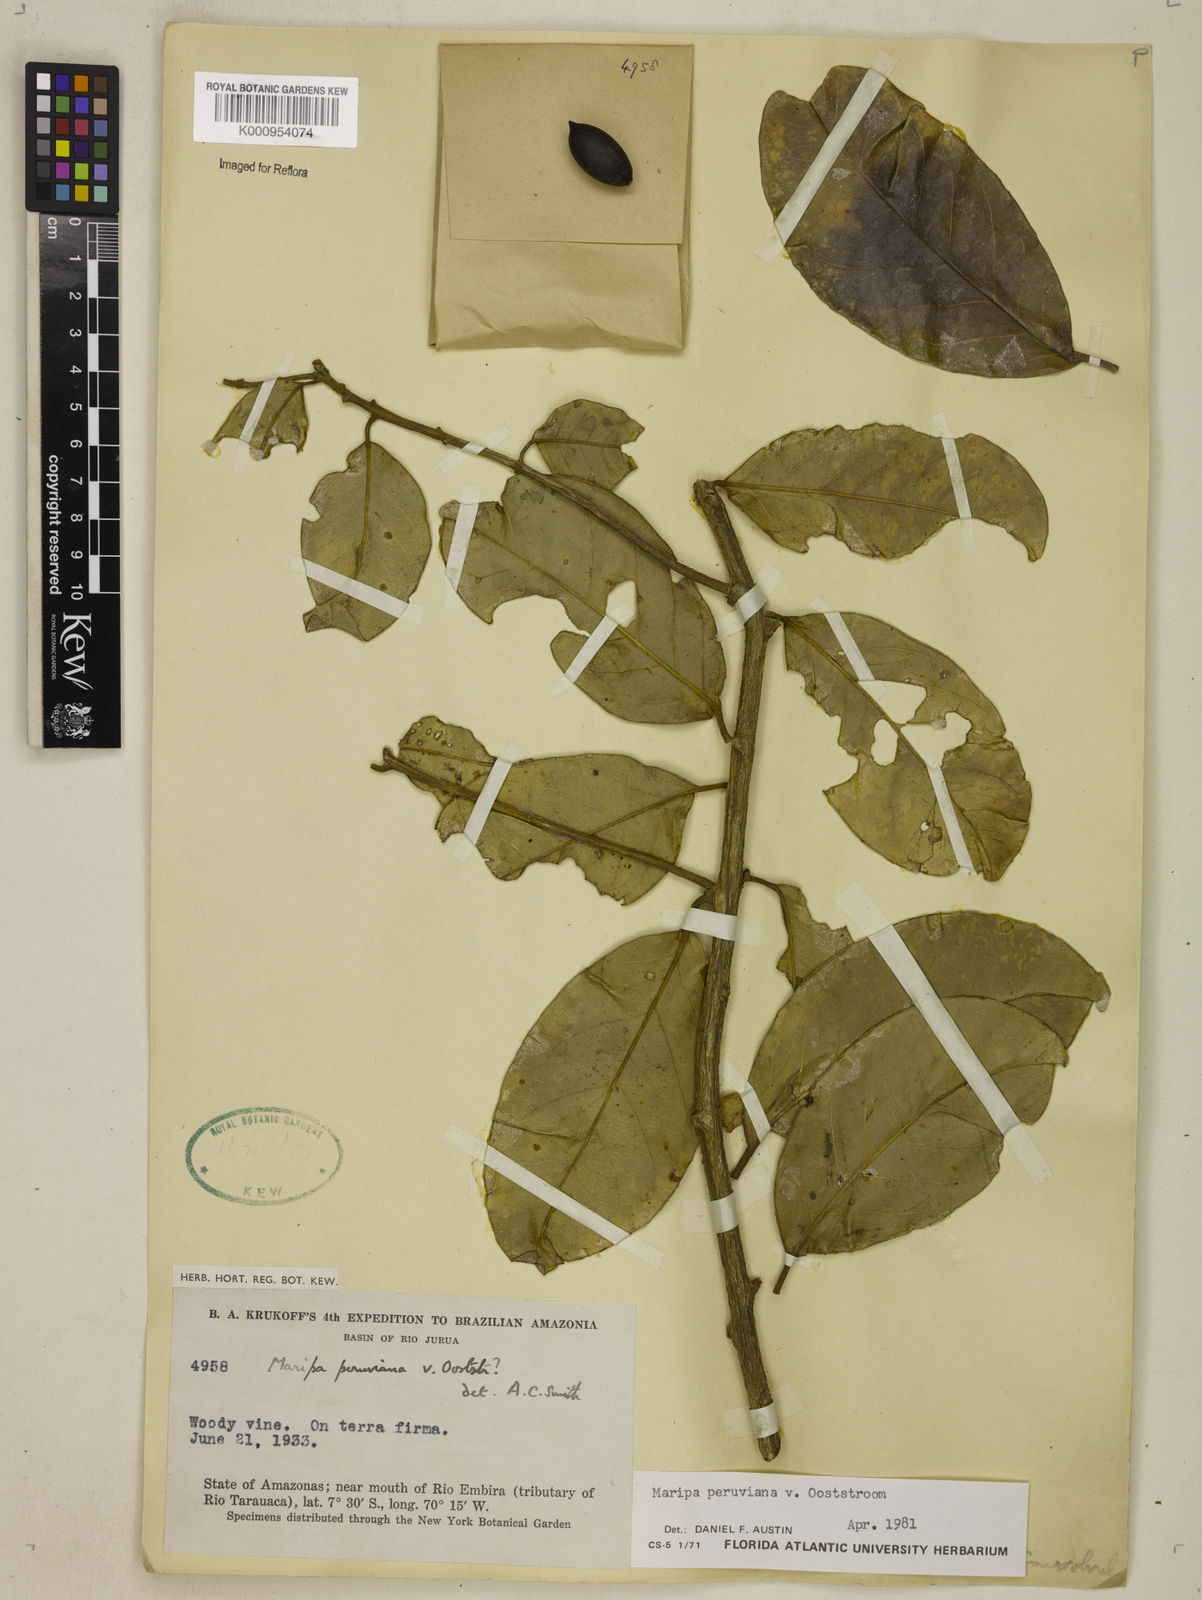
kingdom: Plantae
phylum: Tracheophyta
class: Magnoliopsida
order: Solanales
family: Convolvulaceae
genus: Maripa
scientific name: Maripa paniculata
